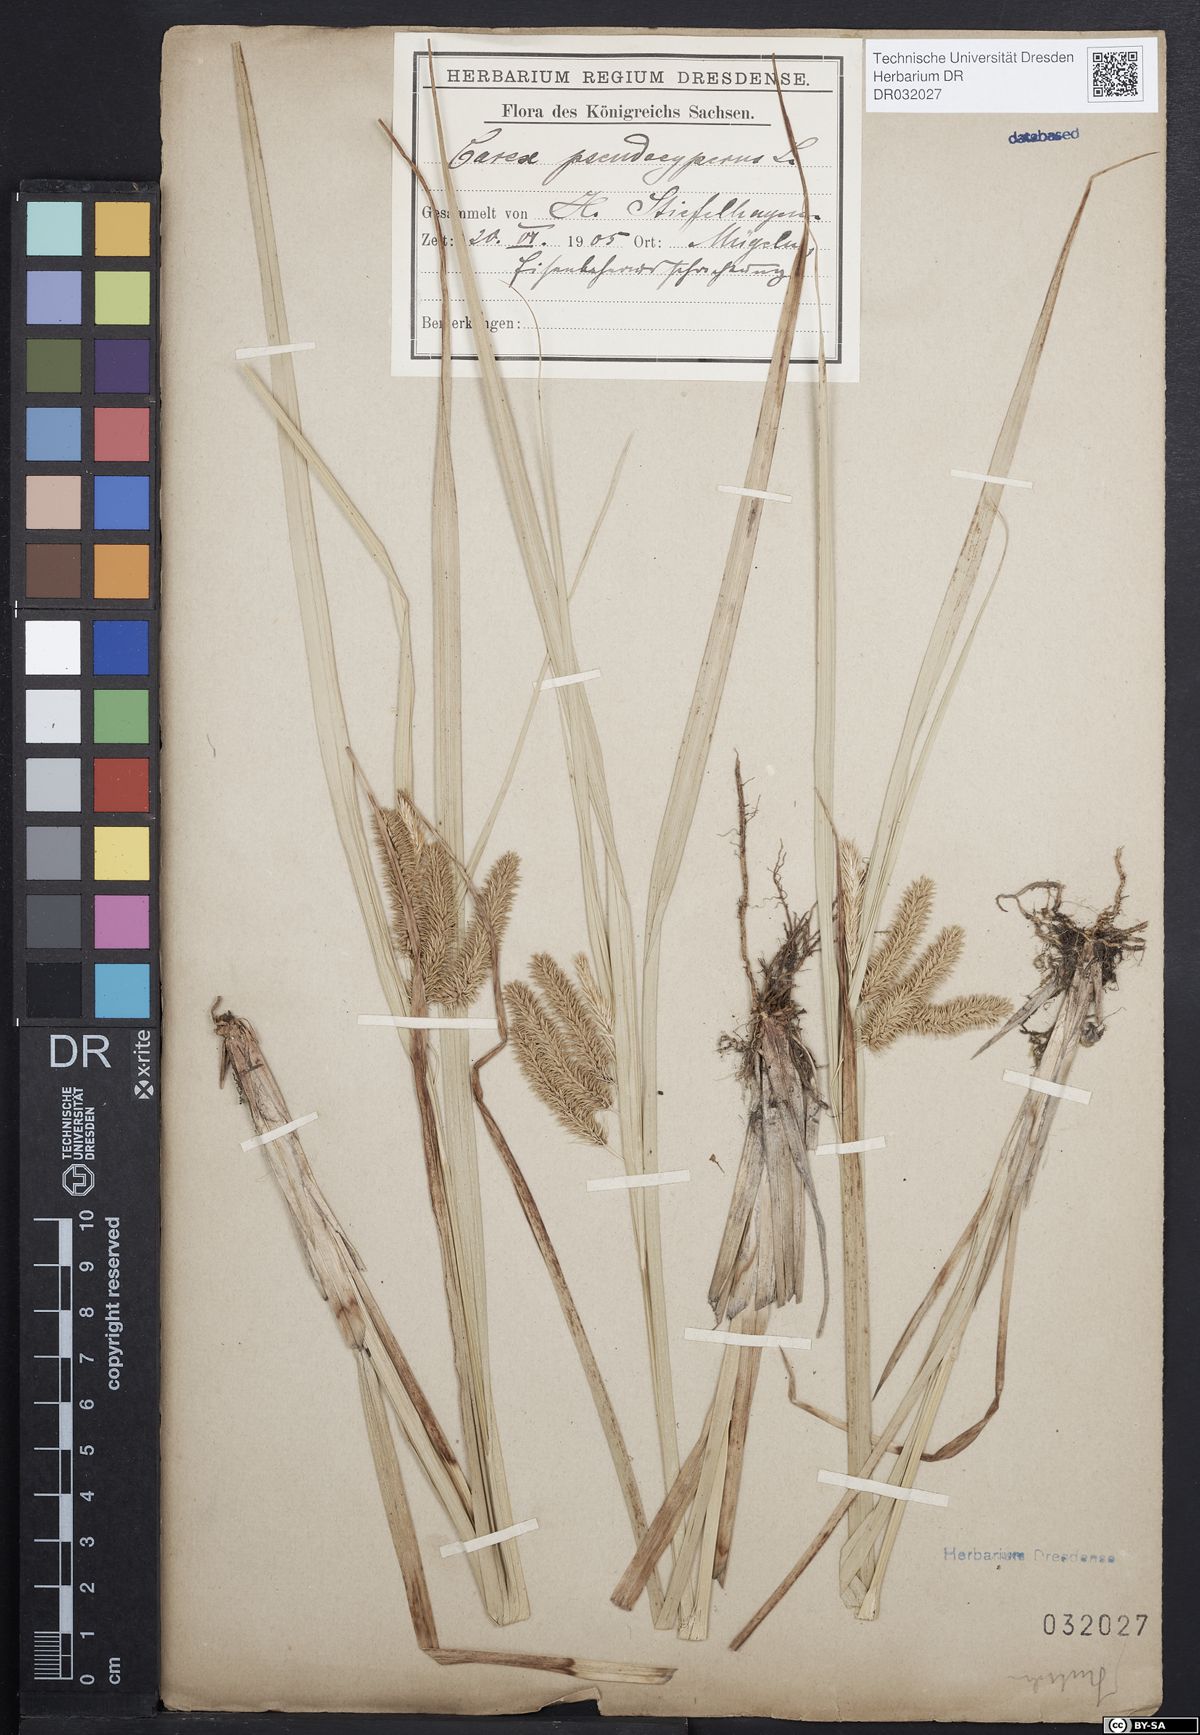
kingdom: Plantae
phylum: Tracheophyta
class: Liliopsida
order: Poales
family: Cyperaceae
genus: Carex
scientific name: Carex pseudocyperus
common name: Cyperus sedge
